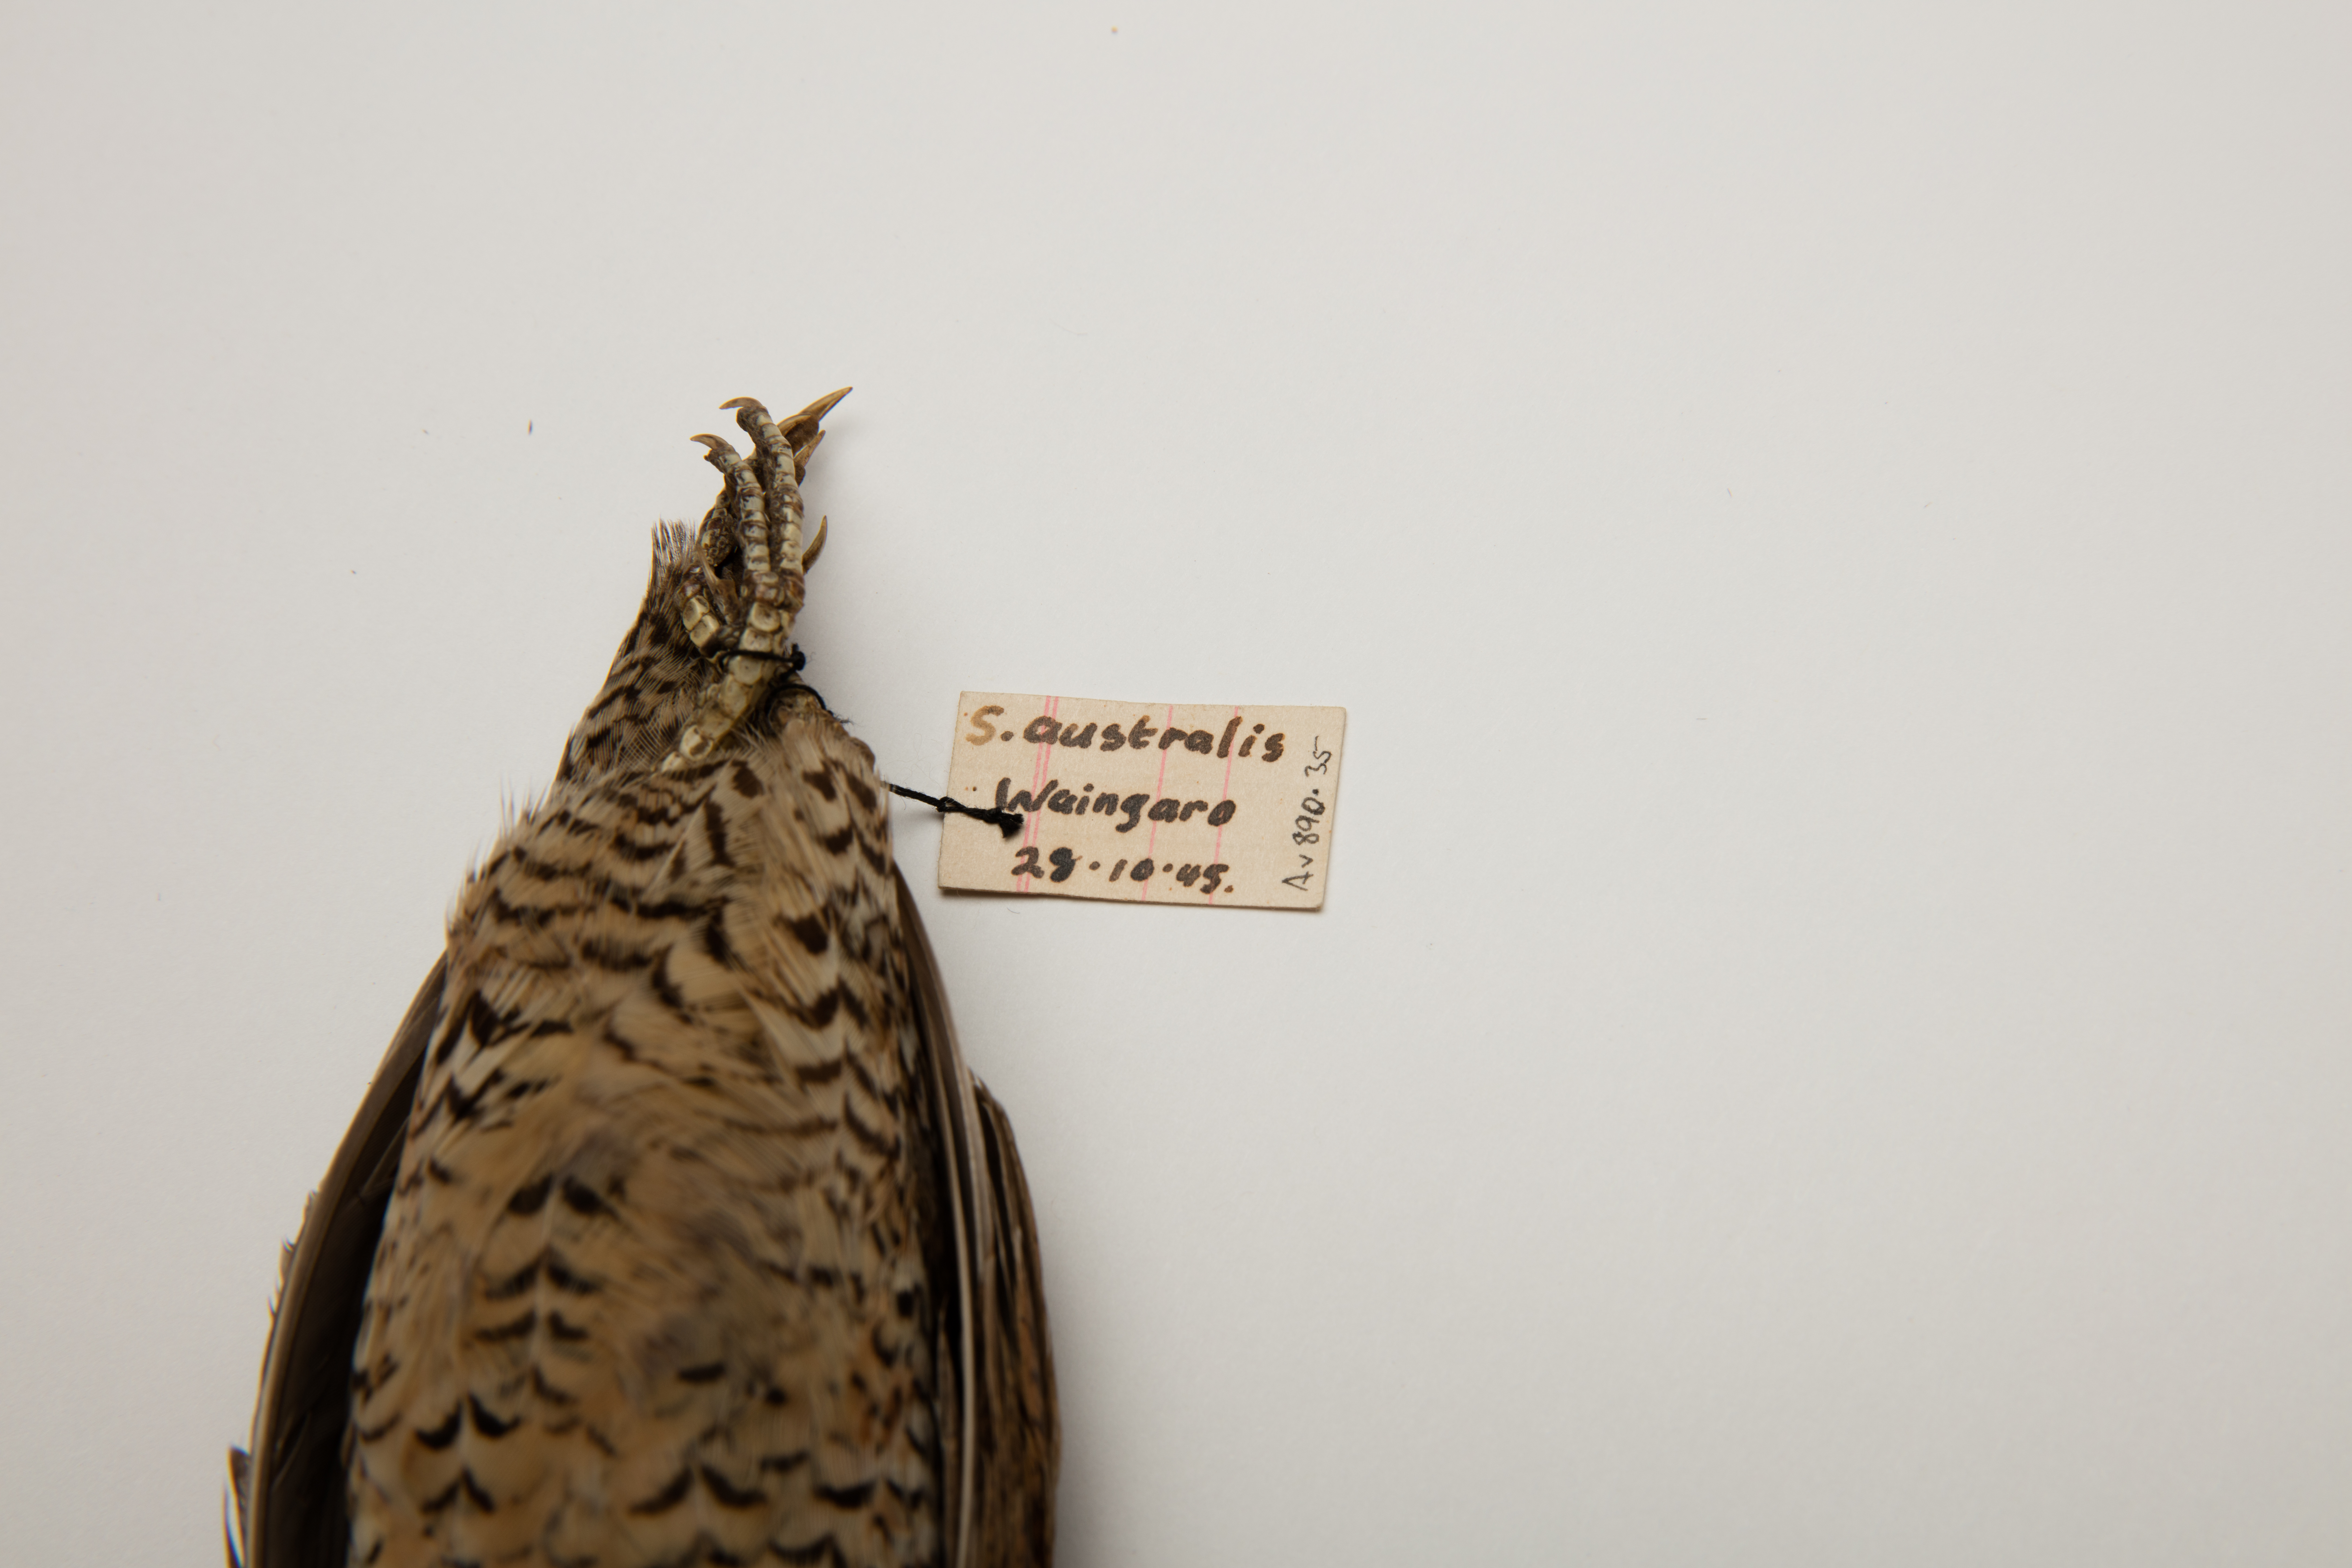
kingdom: Animalia
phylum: Chordata
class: Aves
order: Galliformes
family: Phasianidae
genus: Synoicus
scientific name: Synoicus ypsilophorus
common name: Brown quail
